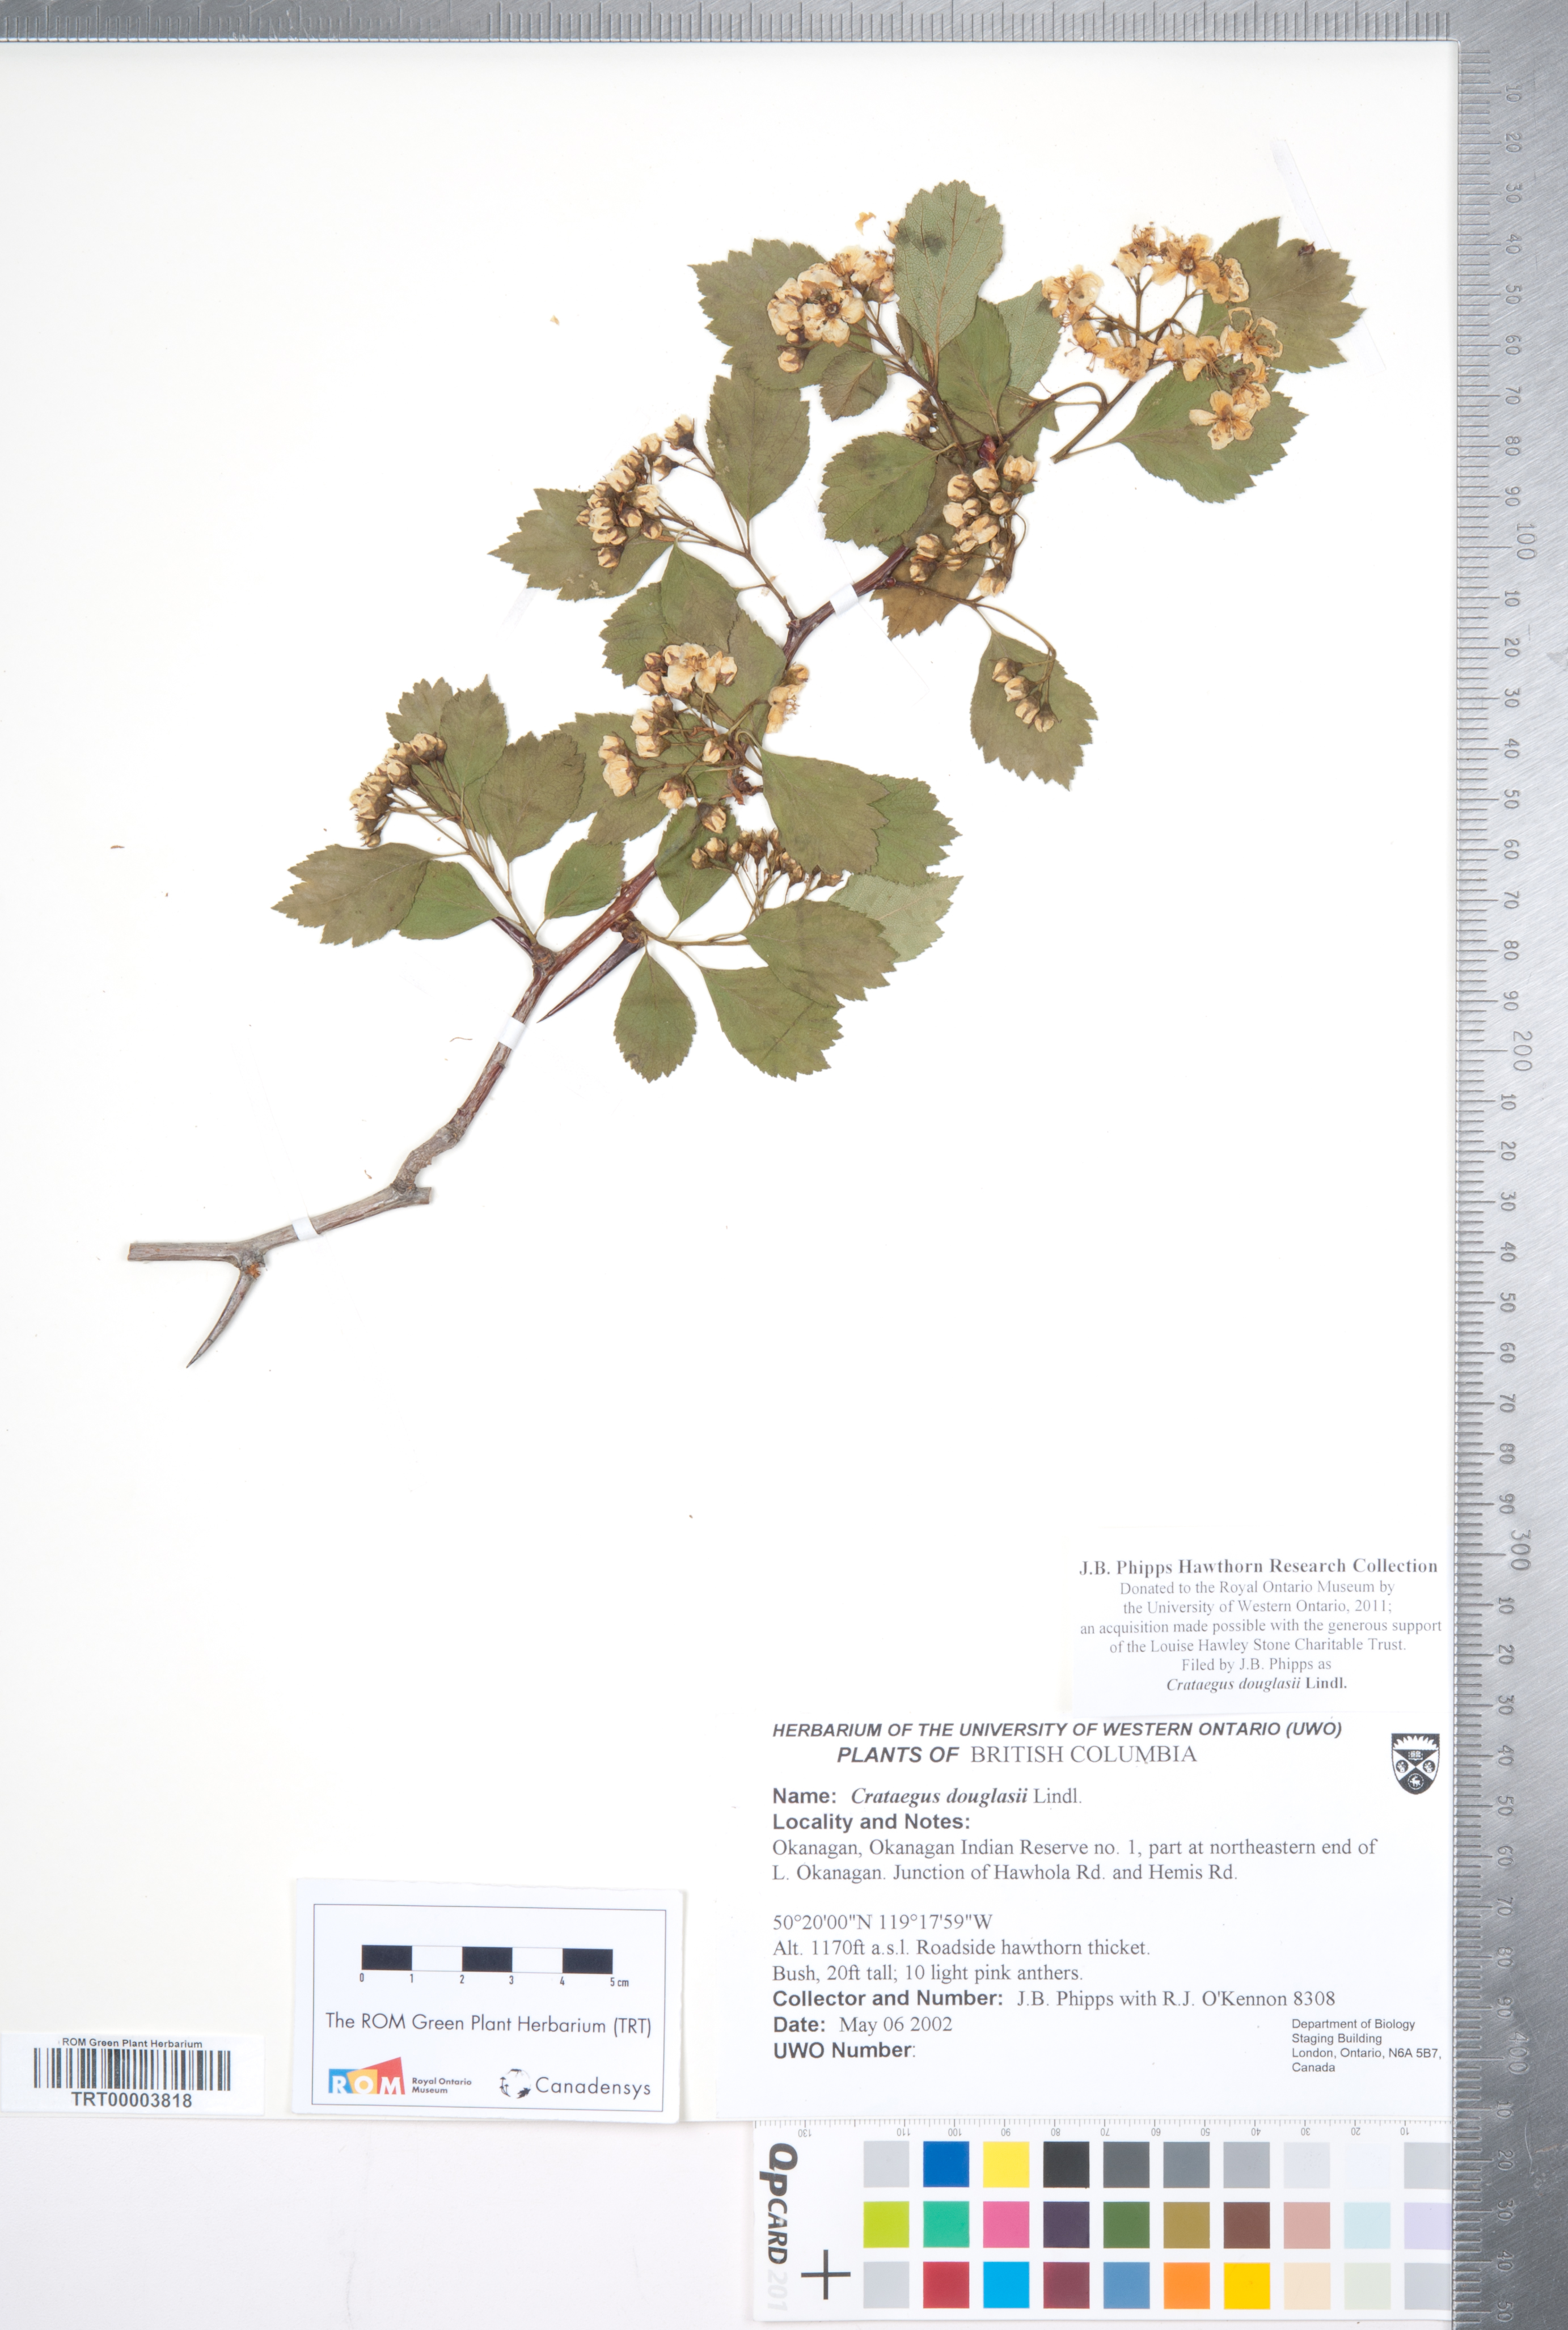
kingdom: Plantae
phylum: Tracheophyta
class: Magnoliopsida
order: Rosales
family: Rosaceae
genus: Crataegus
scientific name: Crataegus douglasii
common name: Black hawthorn
